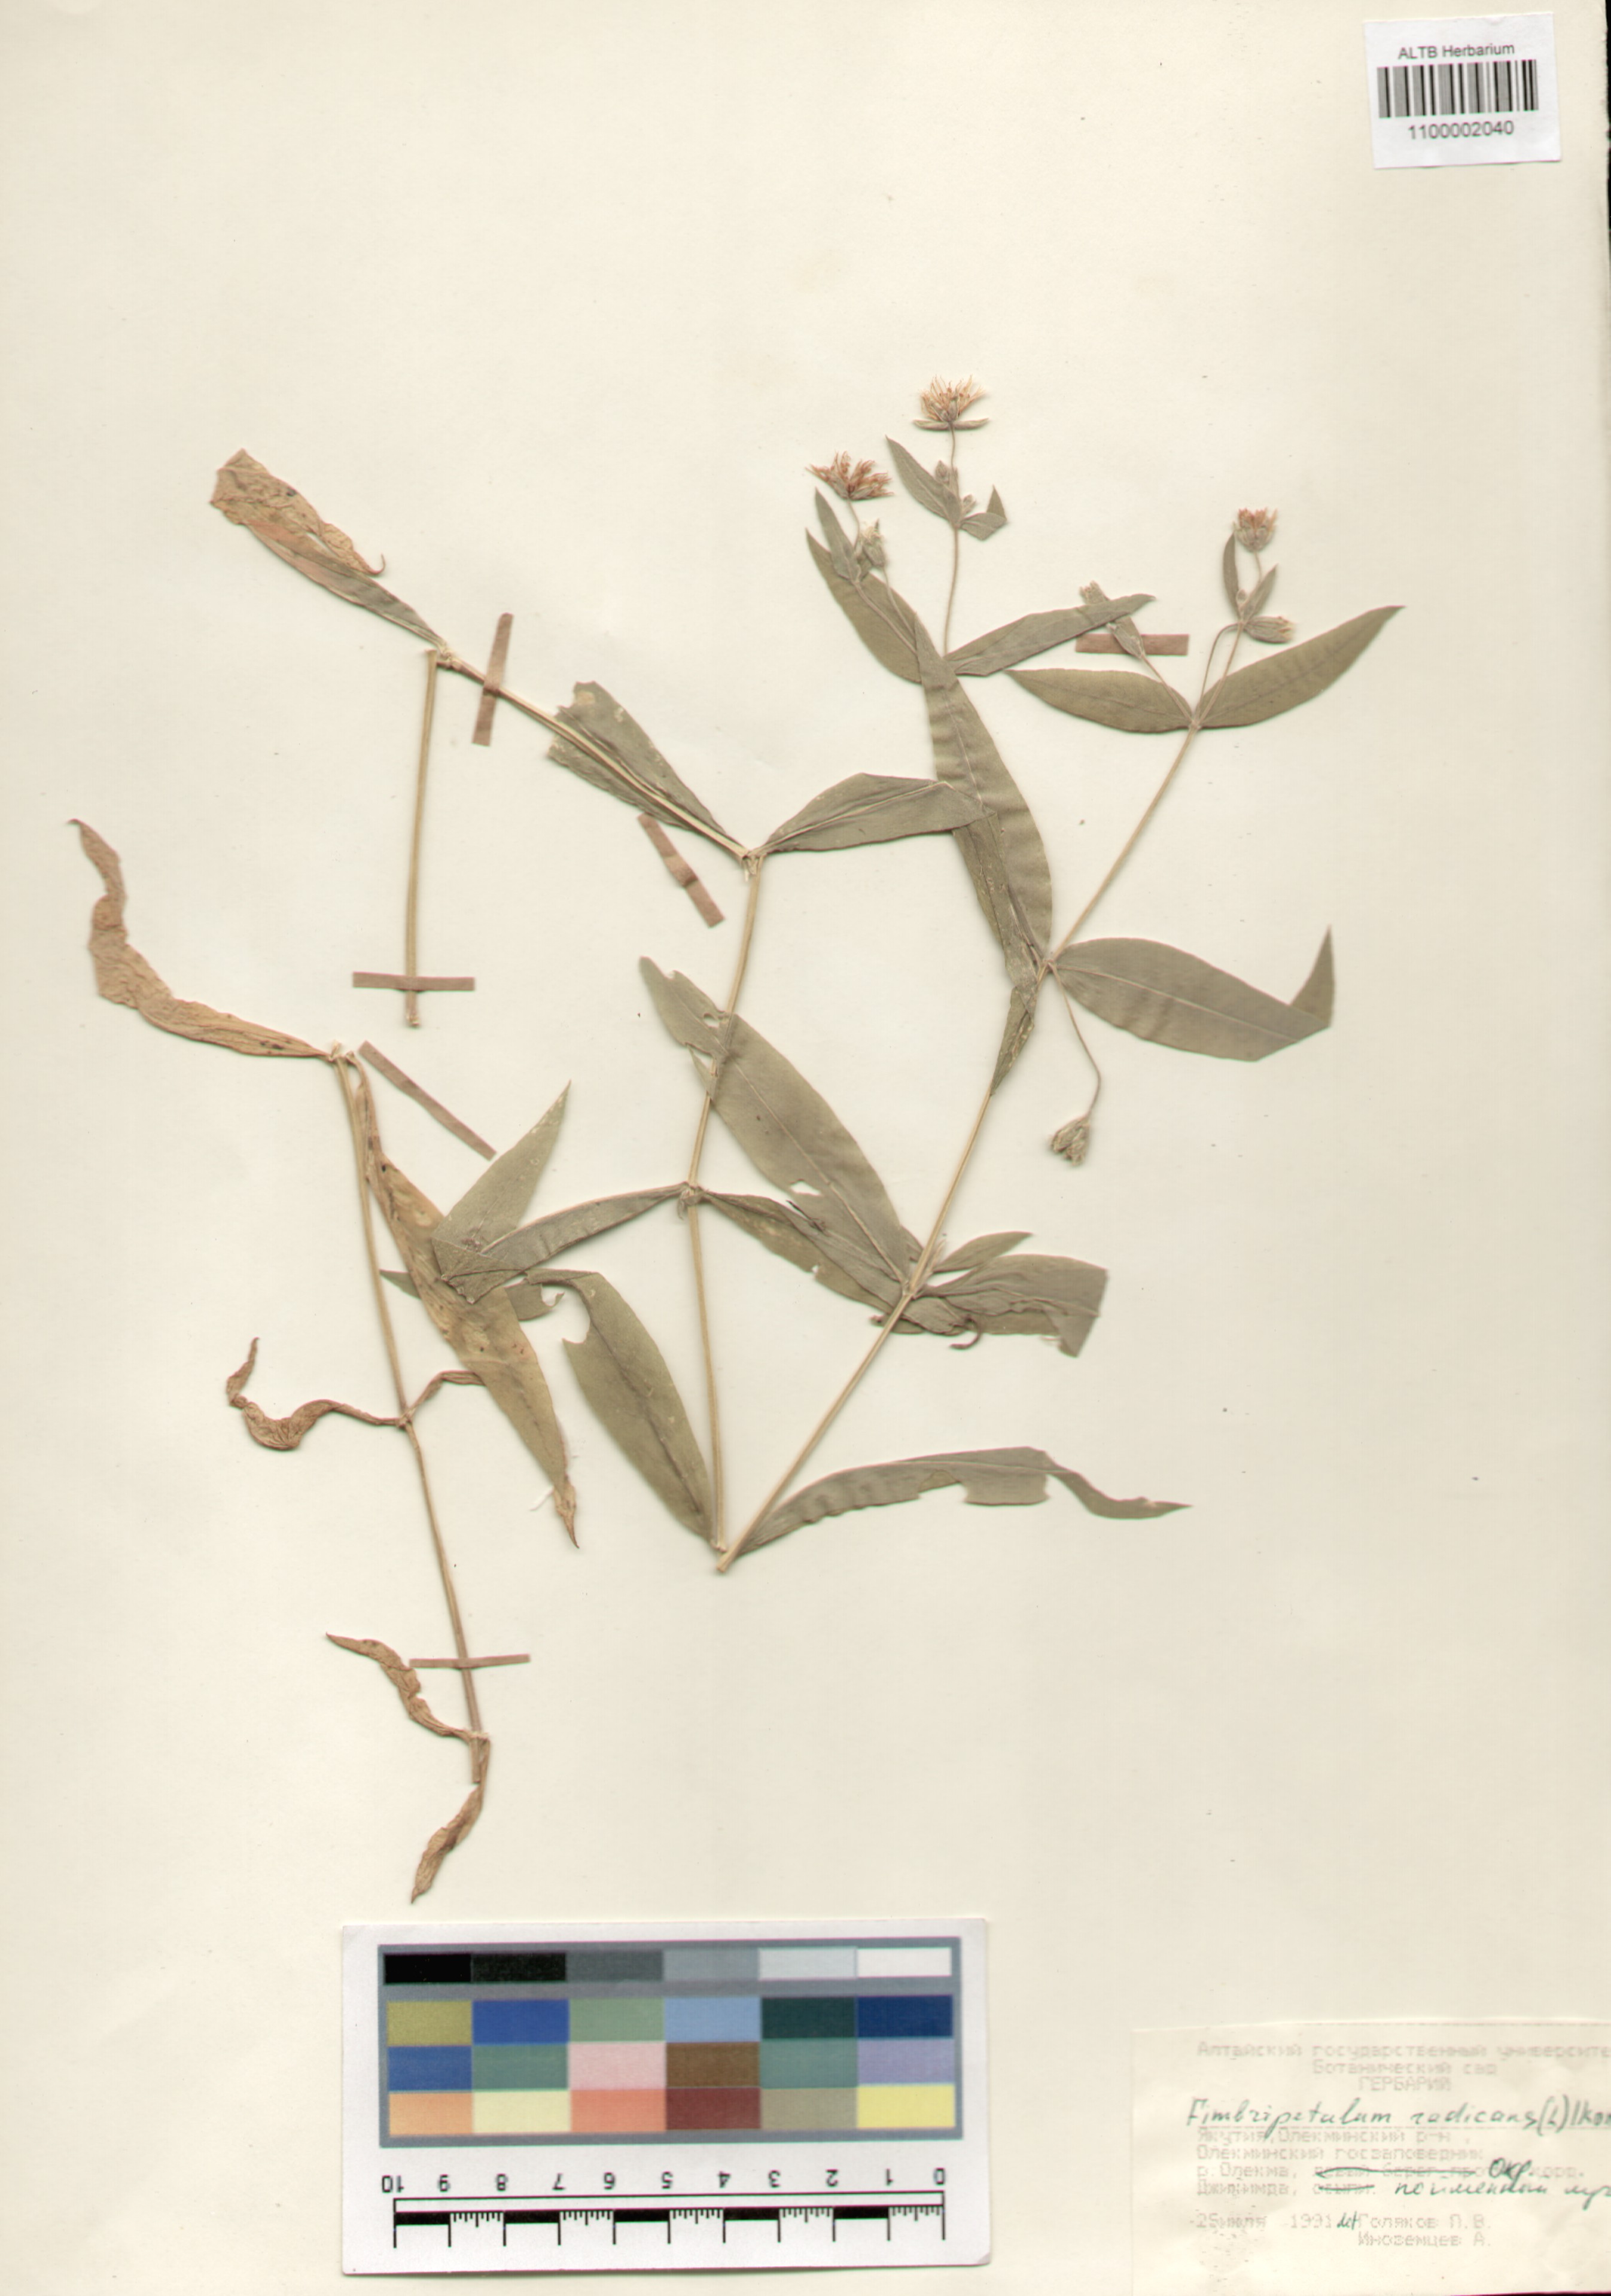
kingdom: Plantae
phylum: Tracheophyta
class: Magnoliopsida
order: Caryophyllales
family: Caryophyllaceae
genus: Stellaria
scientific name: Stellaria radians
